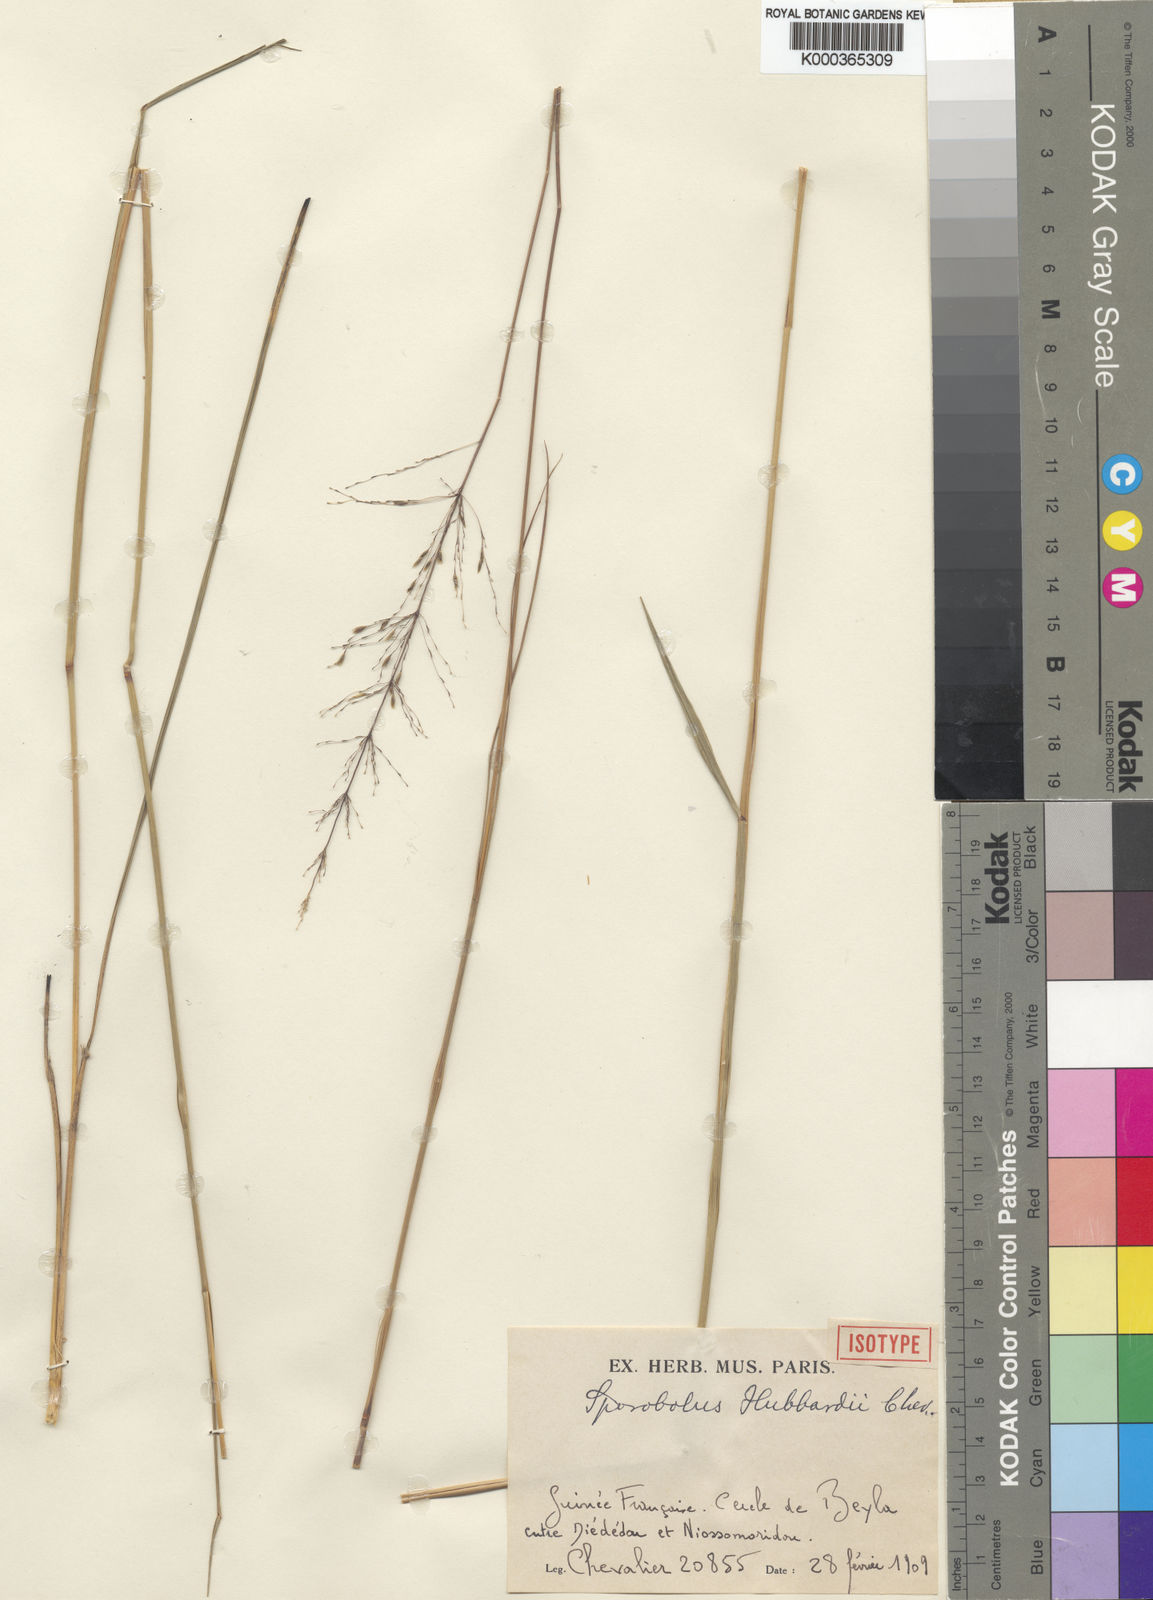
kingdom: Plantae
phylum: Tracheophyta
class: Liliopsida
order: Poales
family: Poaceae
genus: Sporobolus
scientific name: Sporobolus
